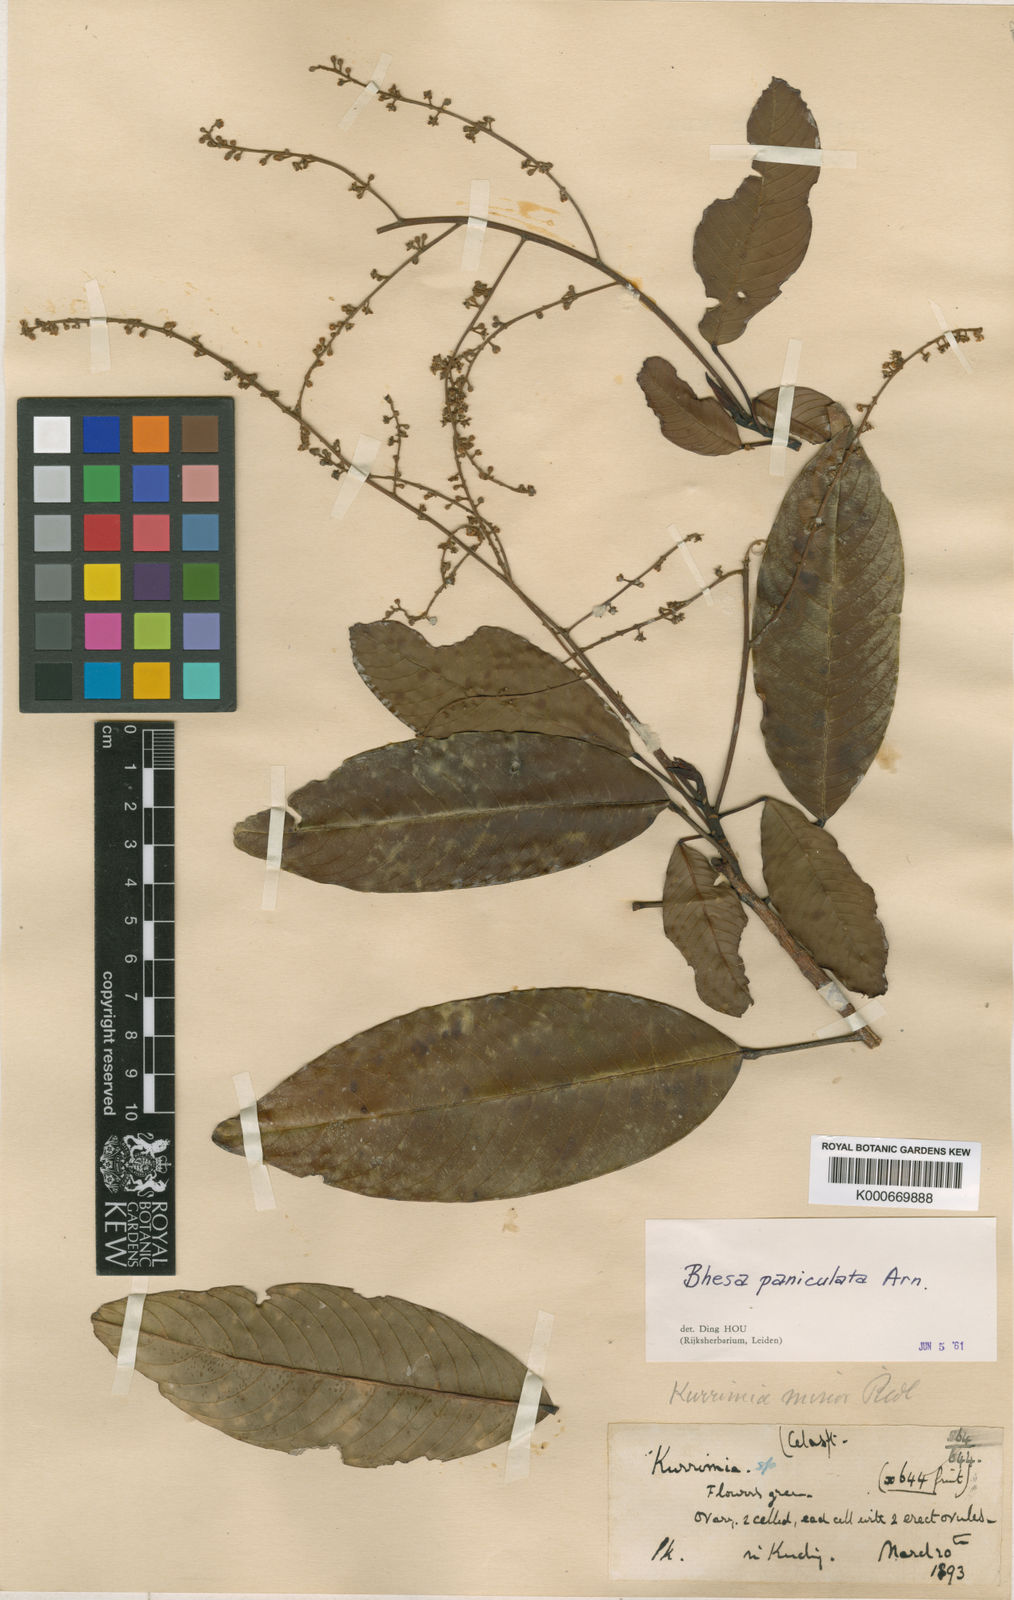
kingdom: Plantae
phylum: Tracheophyta
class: Magnoliopsida
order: Malpighiales
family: Centroplacaceae
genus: Bhesa
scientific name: Bhesa paniculata
